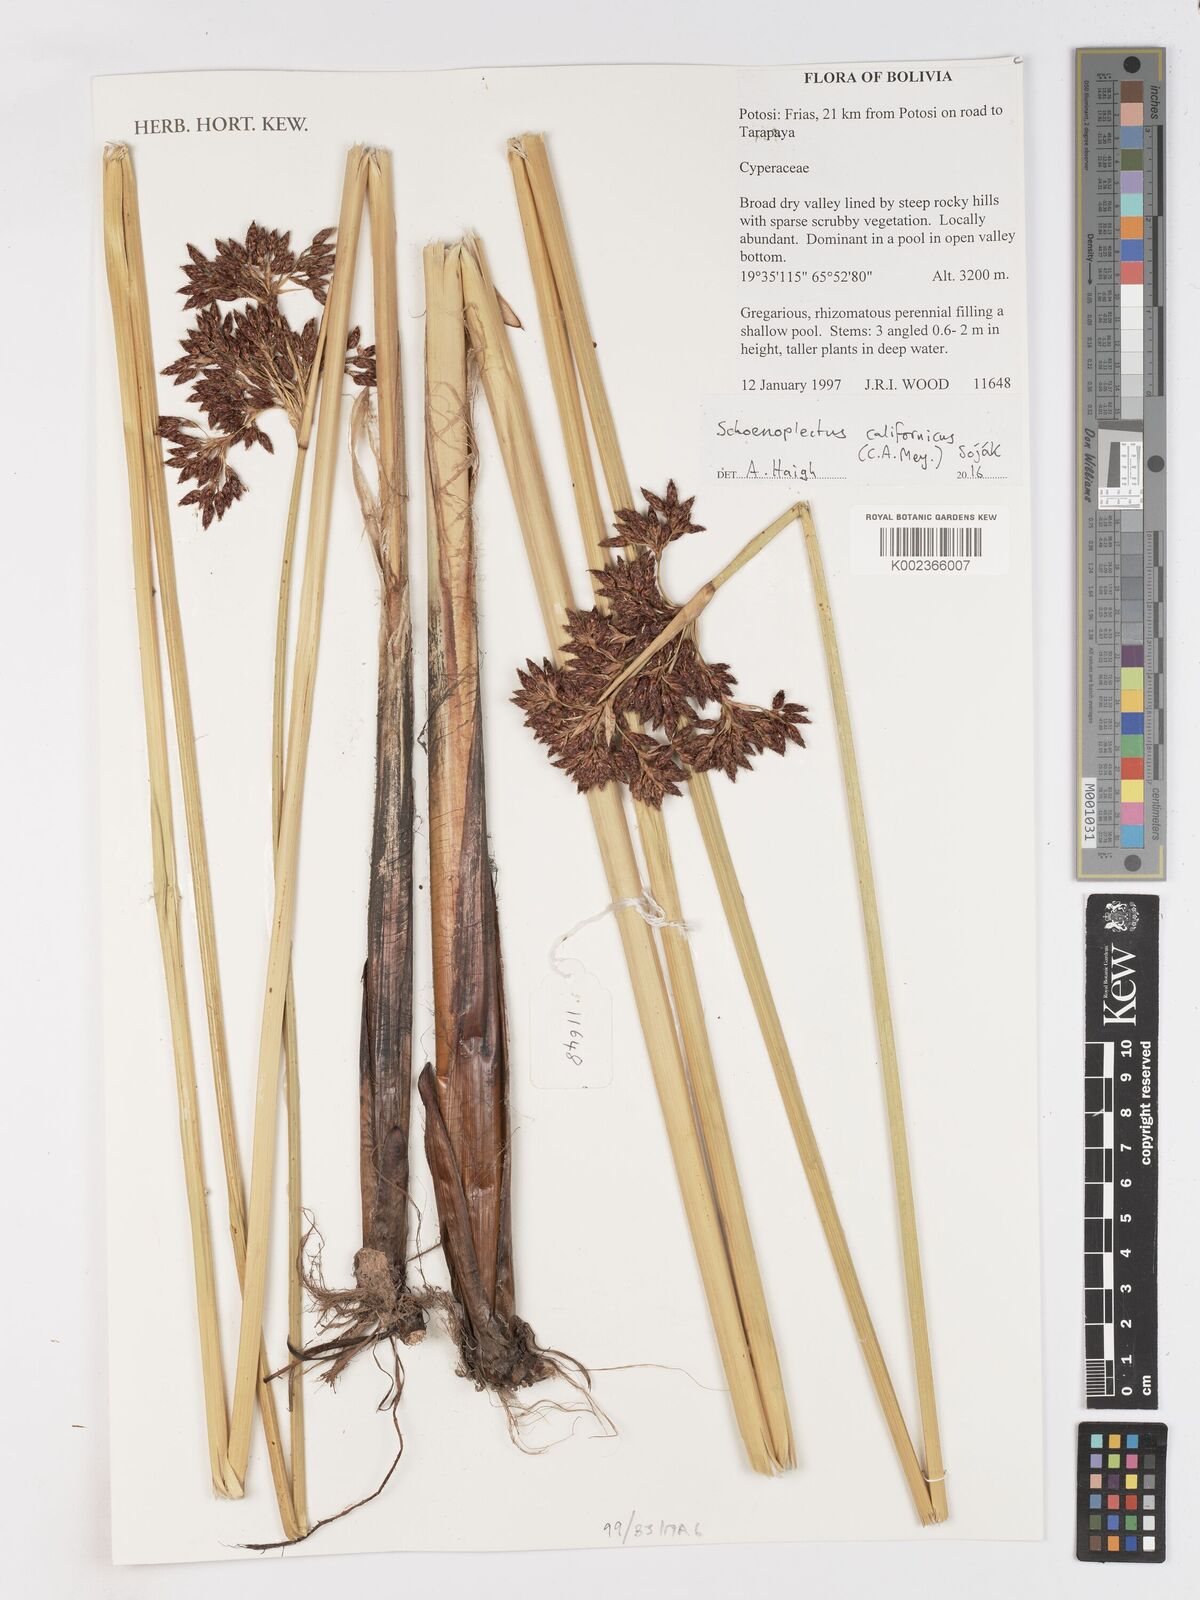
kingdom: Plantae
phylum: Tracheophyta
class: Liliopsida
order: Poales
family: Cyperaceae
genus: Schoenoplectus
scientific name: Schoenoplectus californicus
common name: California bulrush
